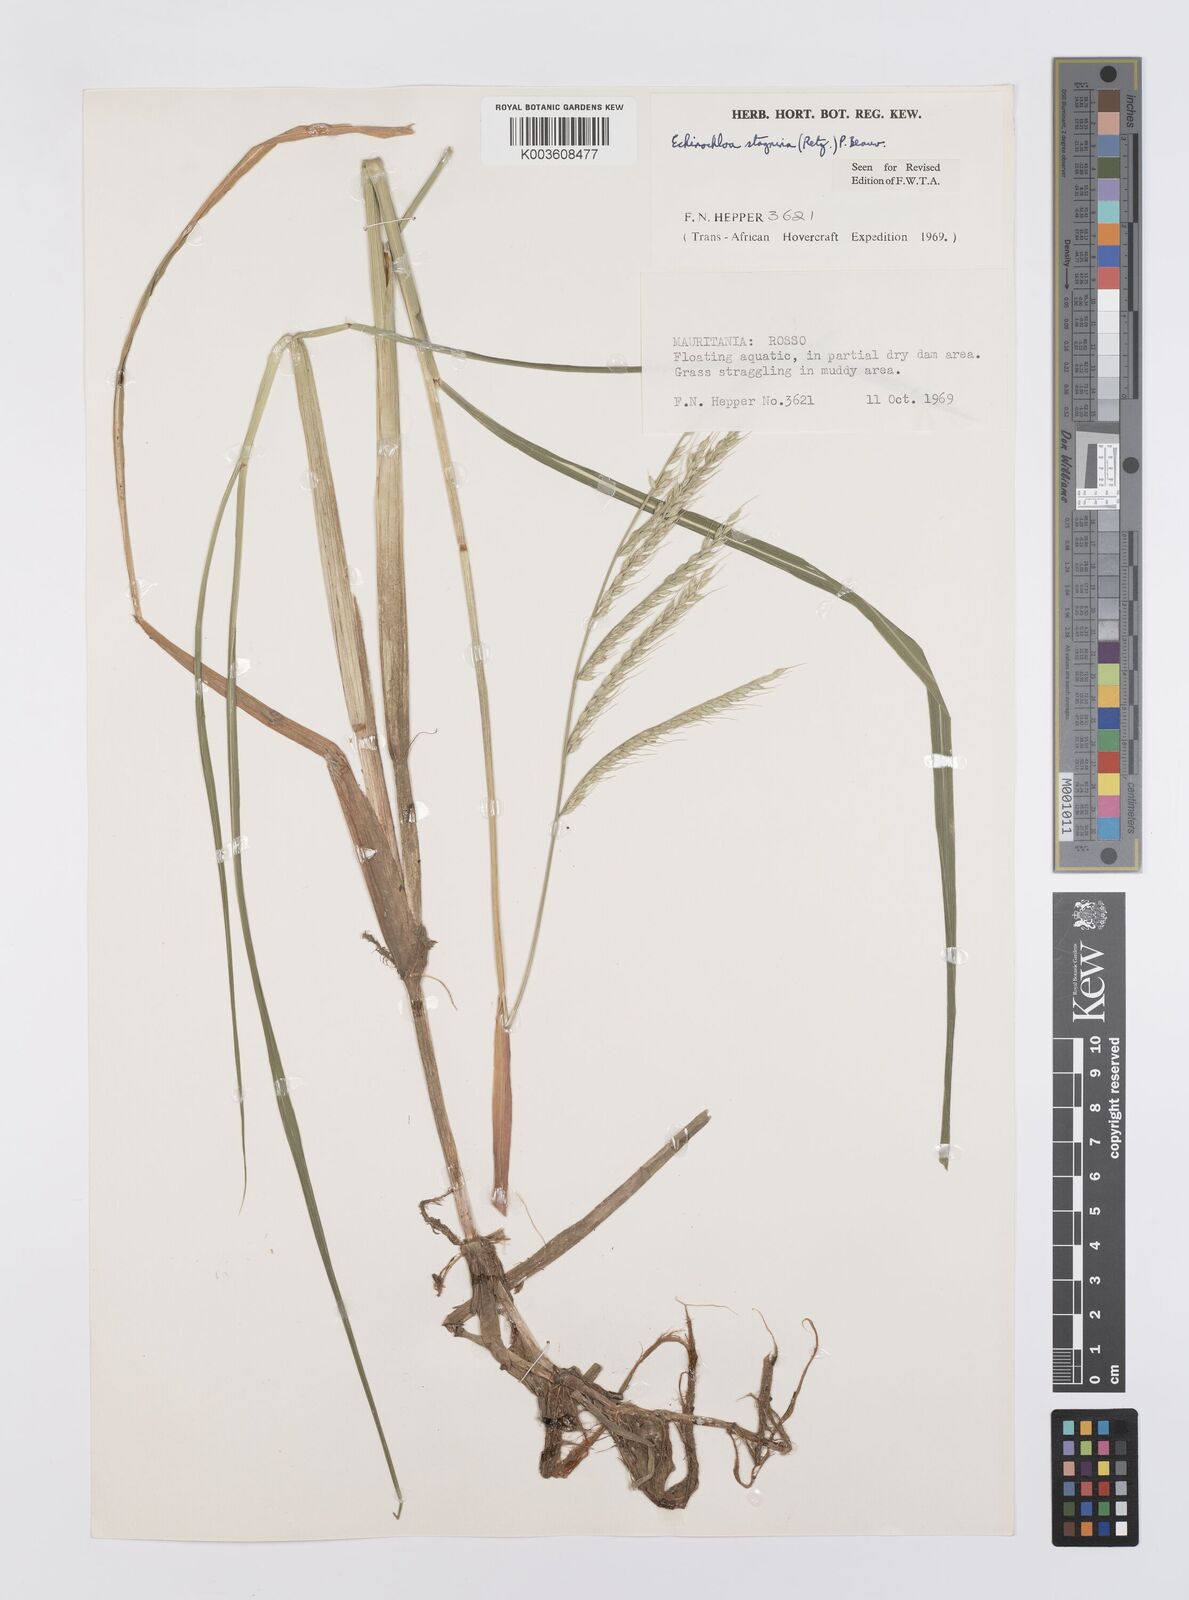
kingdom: Plantae
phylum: Tracheophyta
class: Liliopsida
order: Poales
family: Poaceae
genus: Echinochloa
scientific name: Echinochloa stagnina
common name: Burgu grass
